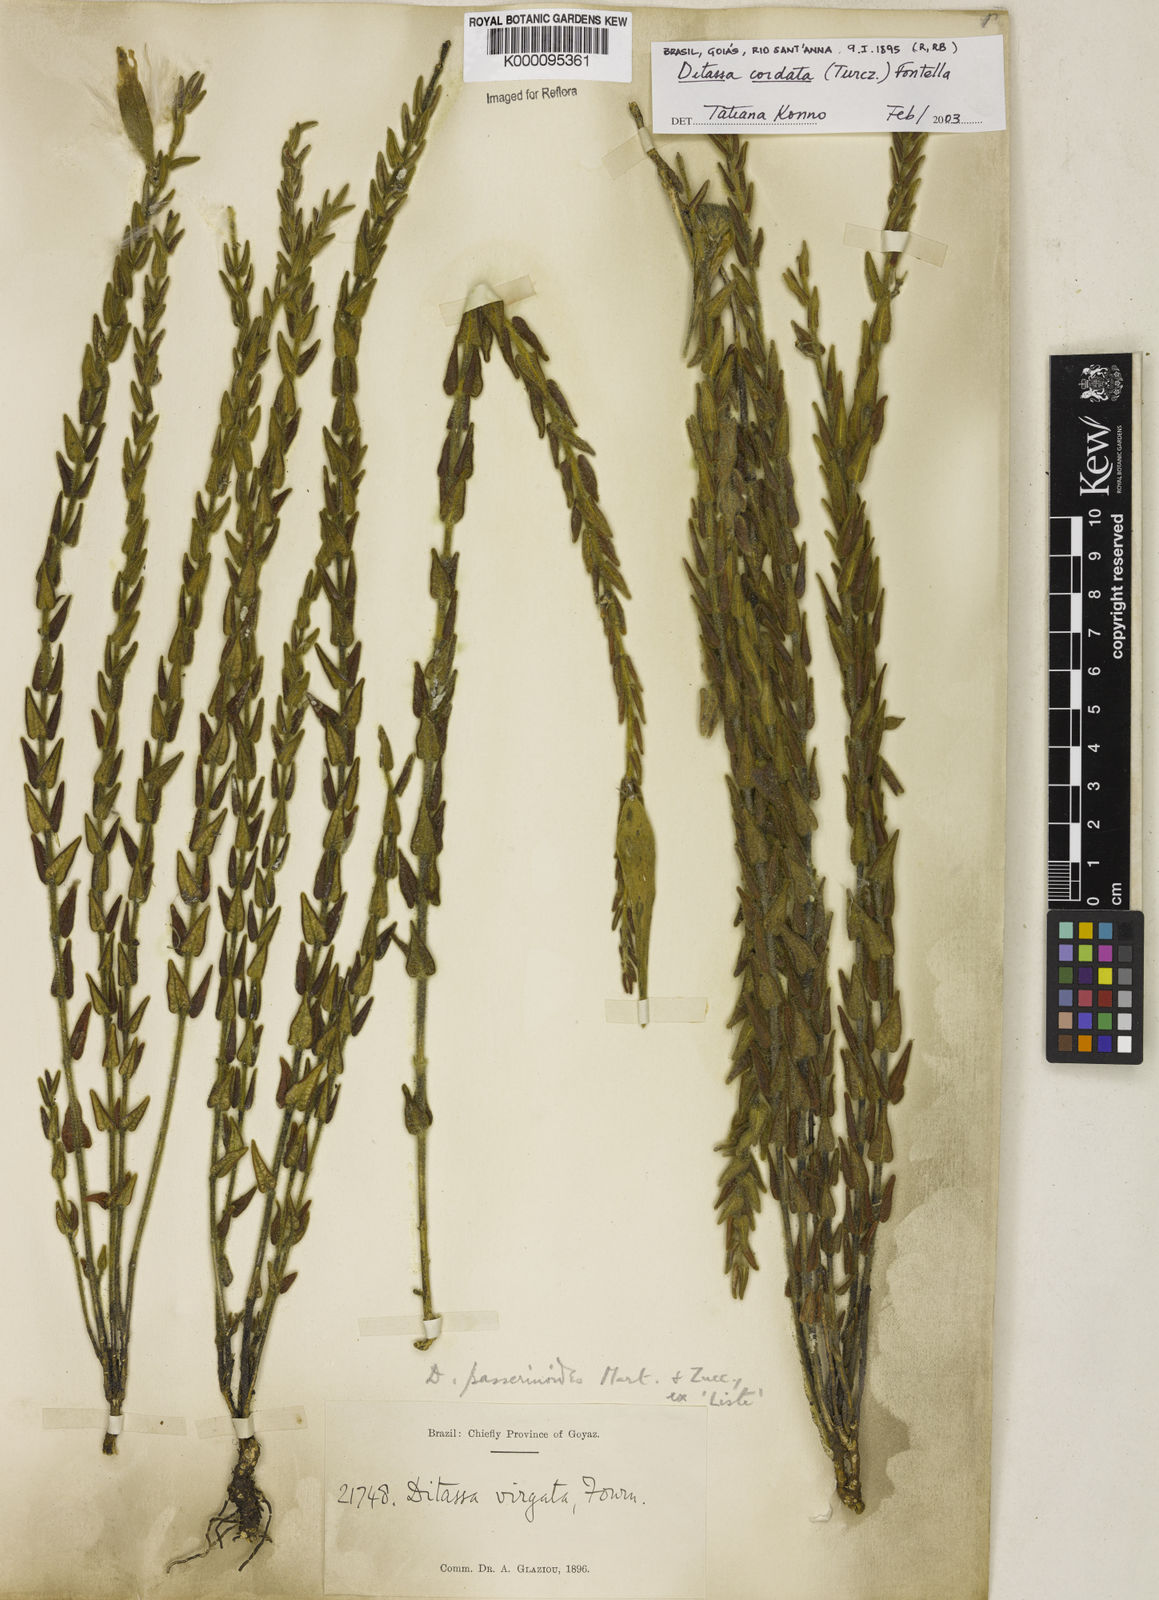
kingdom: Plantae
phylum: Tracheophyta
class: Magnoliopsida
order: Gentianales
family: Apocynaceae
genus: Minaria
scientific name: Minaria cordata
